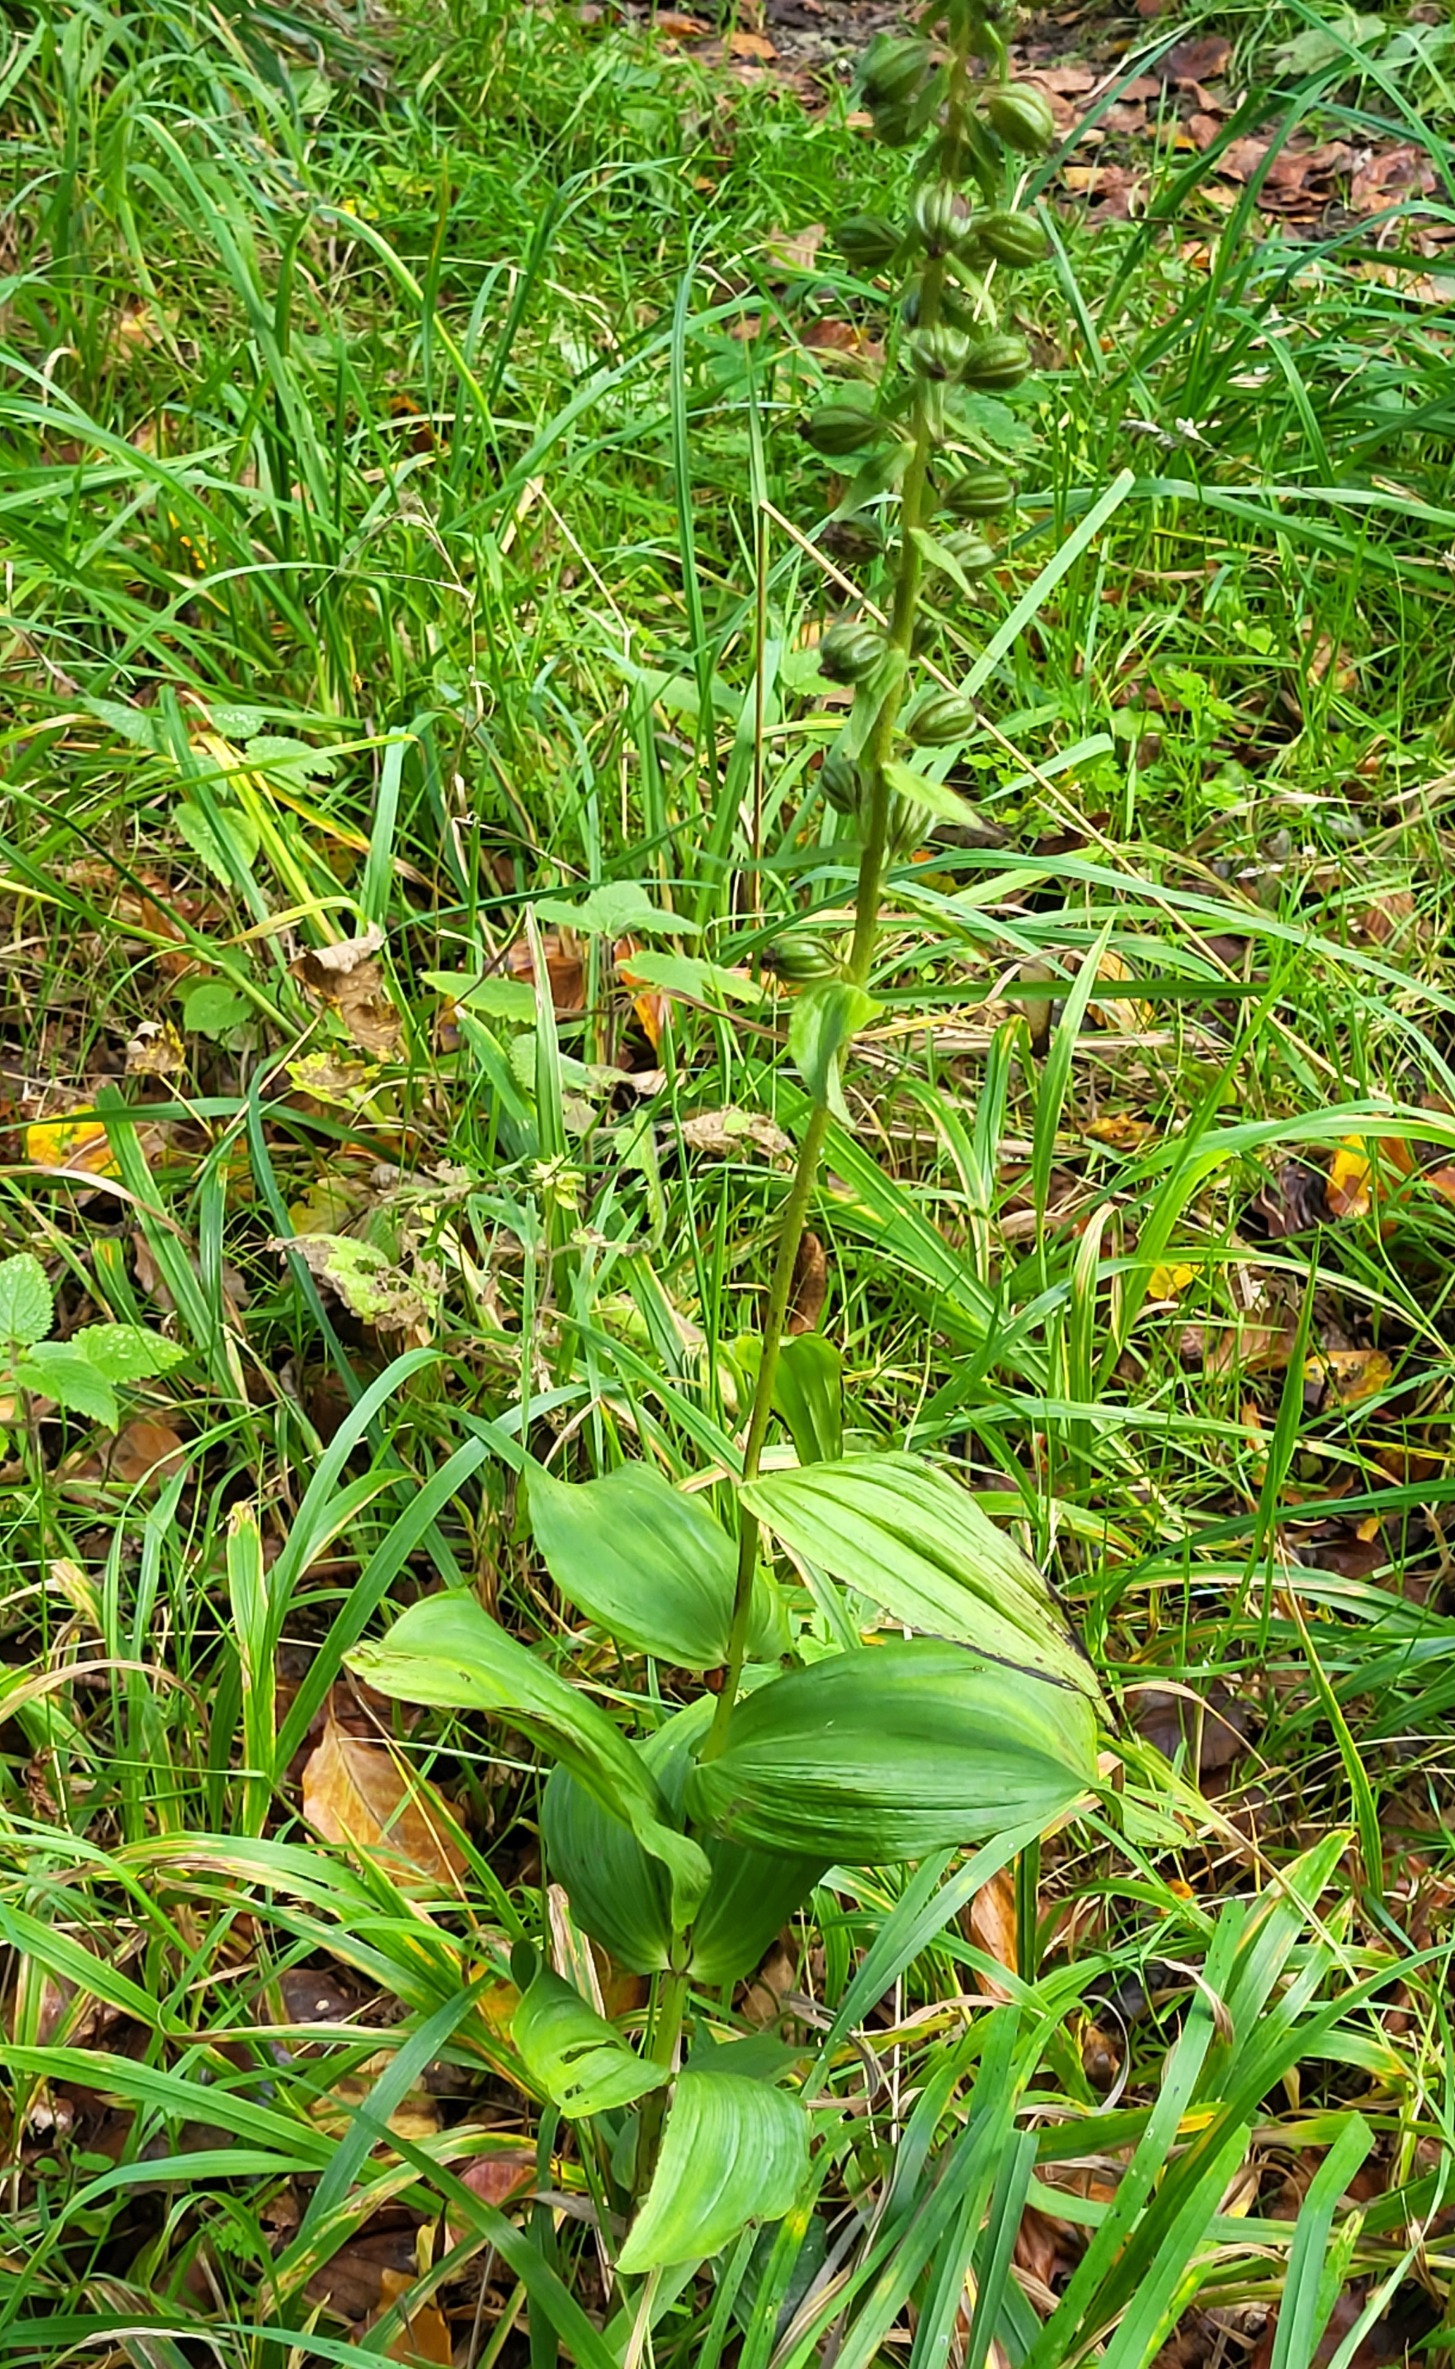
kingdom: Plantae
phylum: Tracheophyta
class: Liliopsida
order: Asparagales
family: Orchidaceae
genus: Epipactis
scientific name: Epipactis helleborine
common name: Skov-hullæbe
